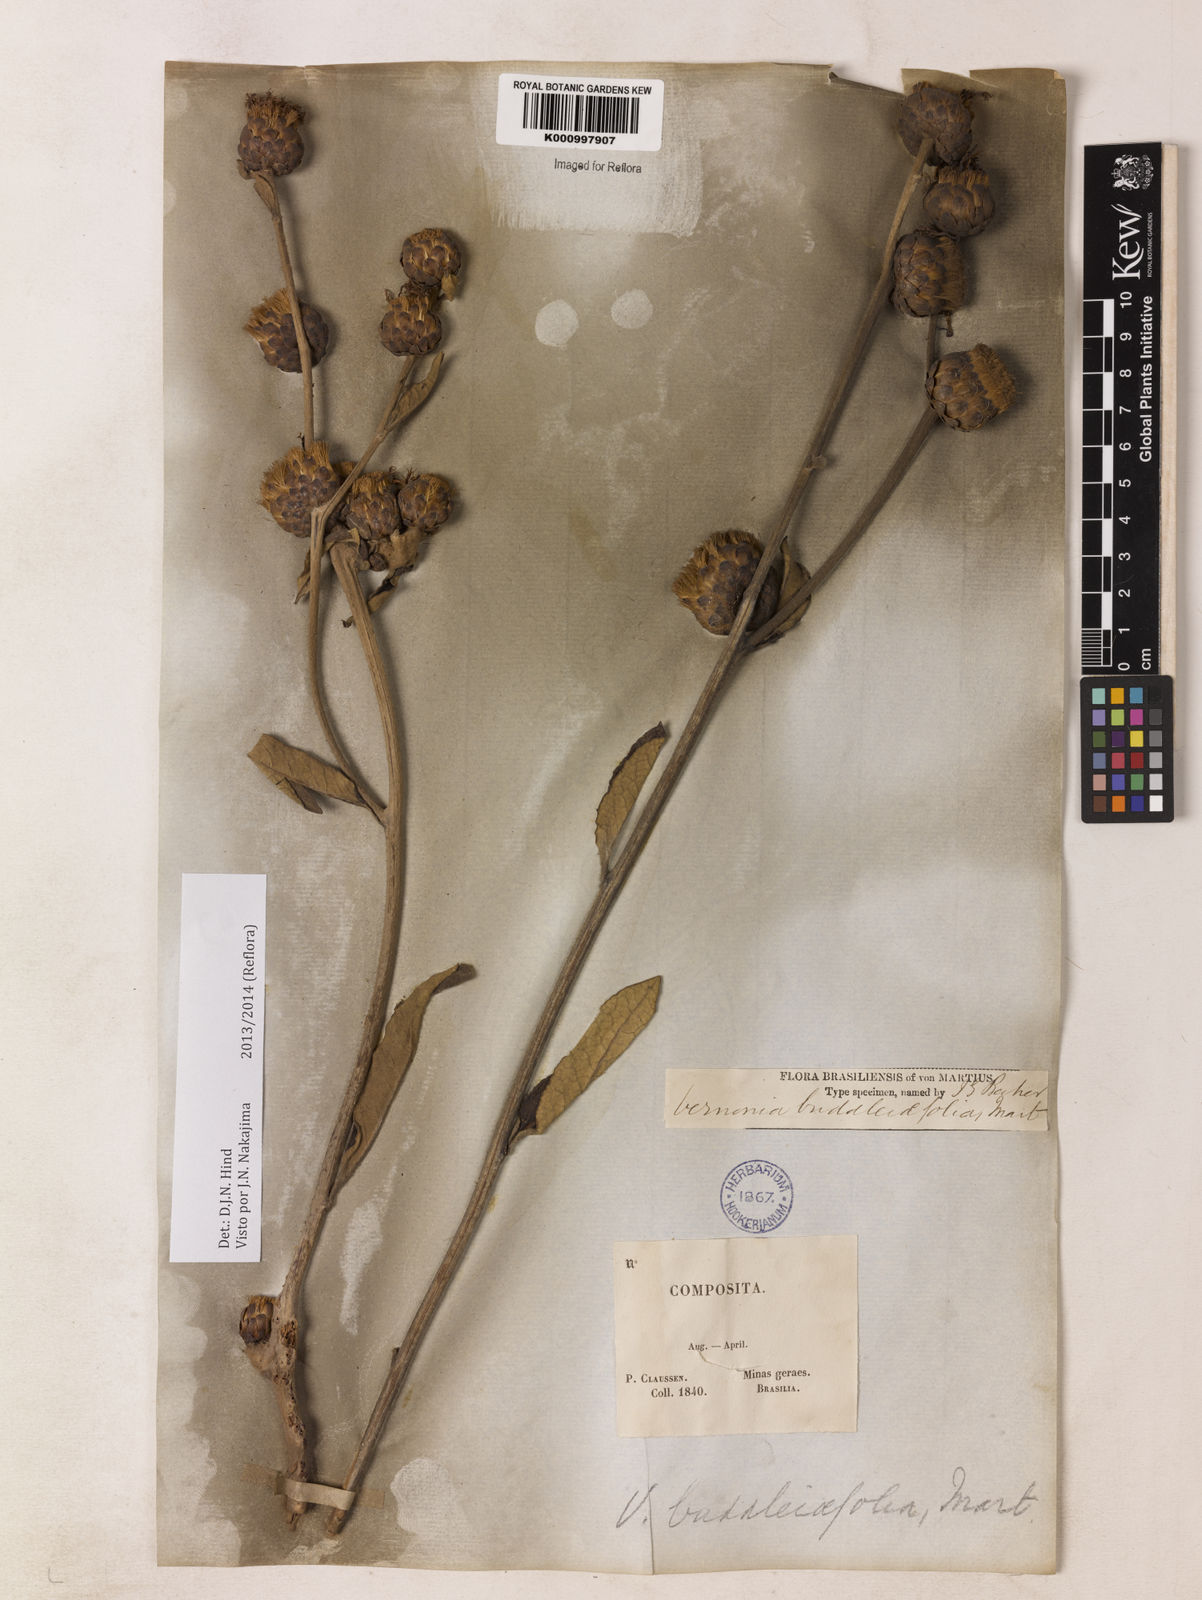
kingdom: Plantae
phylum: Tracheophyta
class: Magnoliopsida
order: Asterales
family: Asteraceae
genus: Lessingianthus
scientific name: Lessingianthus buddlejifolius
